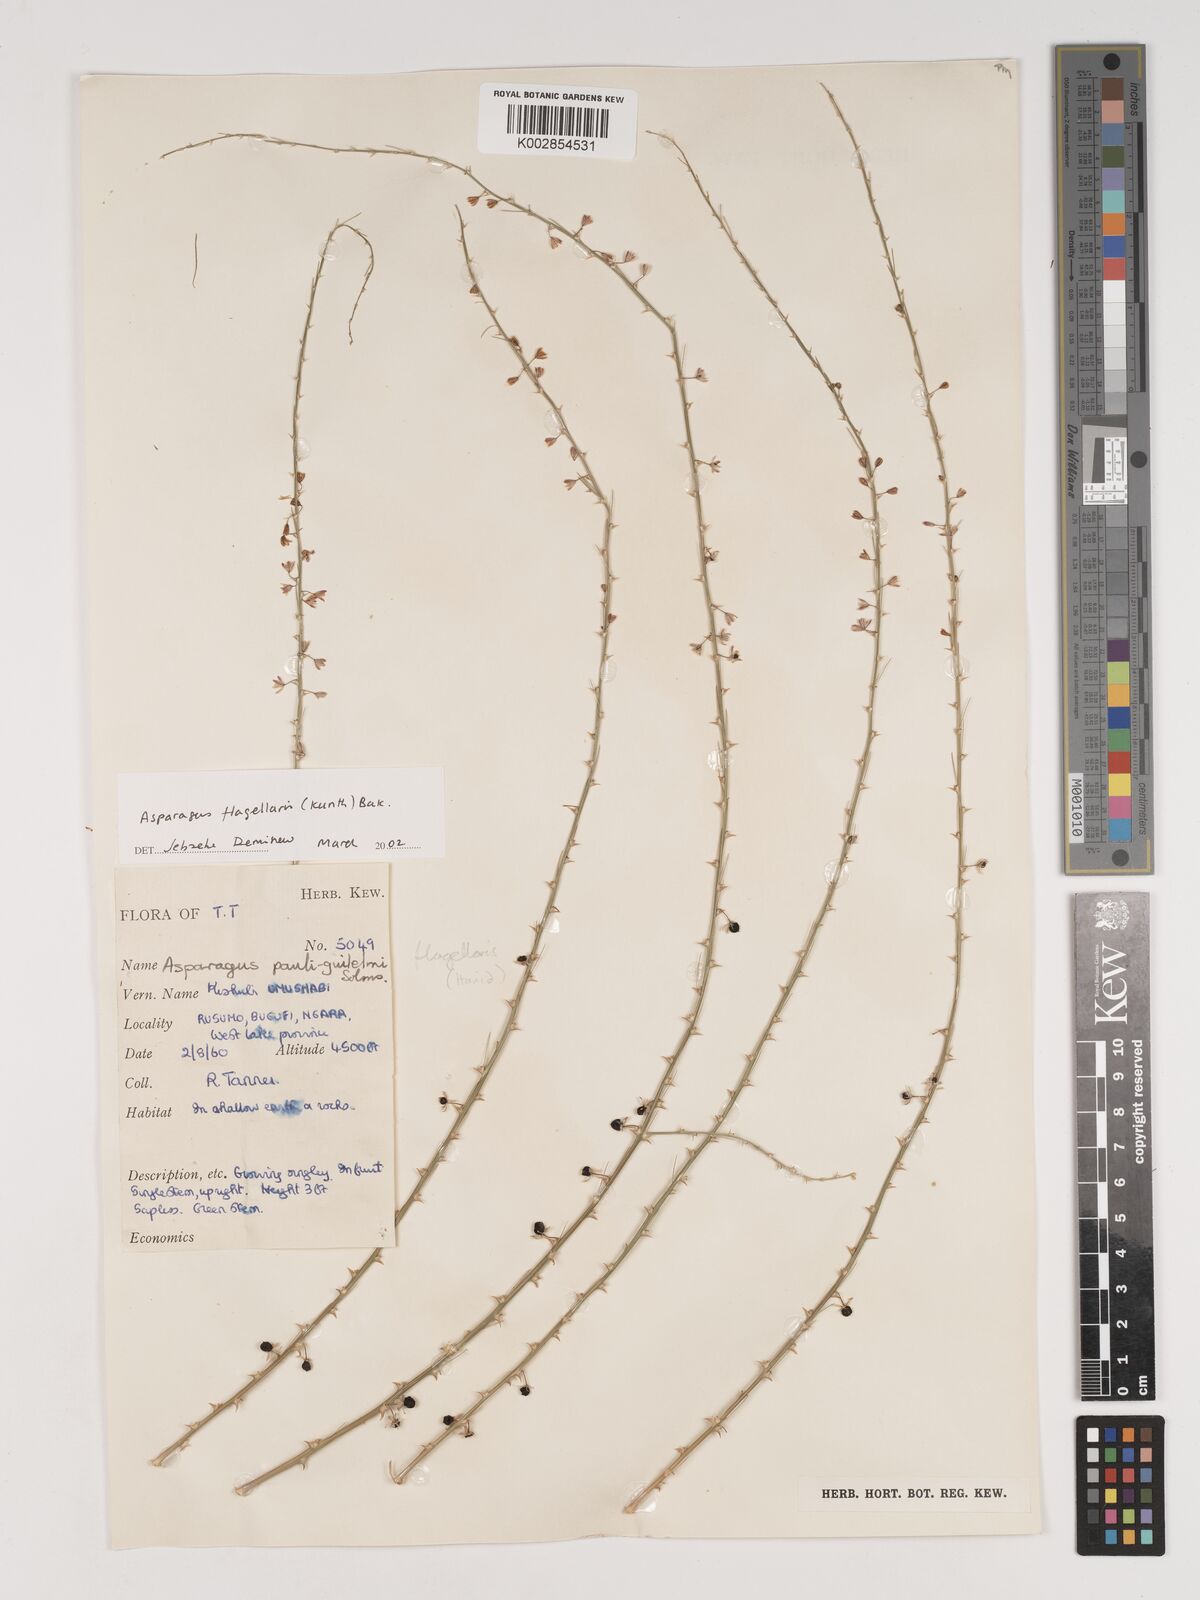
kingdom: Plantae
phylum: Tracheophyta
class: Liliopsida
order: Asparagales
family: Asparagaceae
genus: Asparagus
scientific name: Asparagus flagellaris
